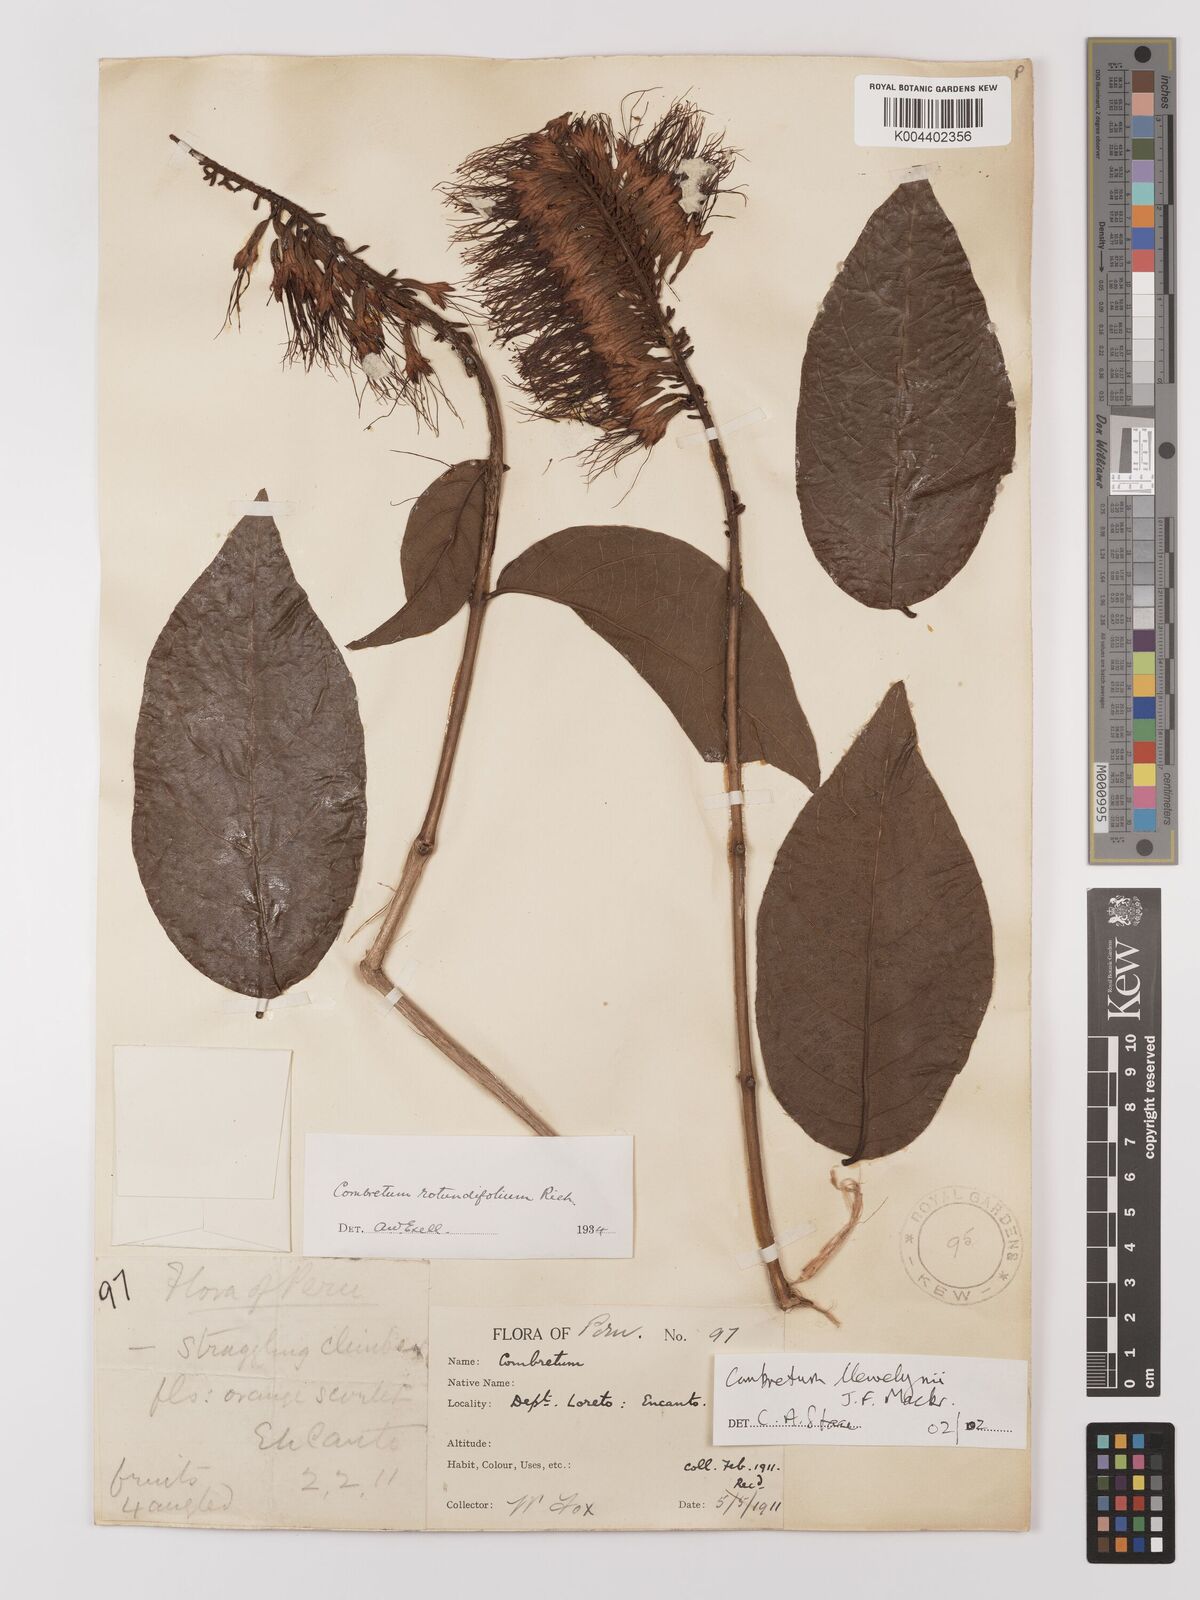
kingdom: Plantae
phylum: Tracheophyta
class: Magnoliopsida
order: Myrtales
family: Combretaceae
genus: Combretum
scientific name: Combretum llewelynii
